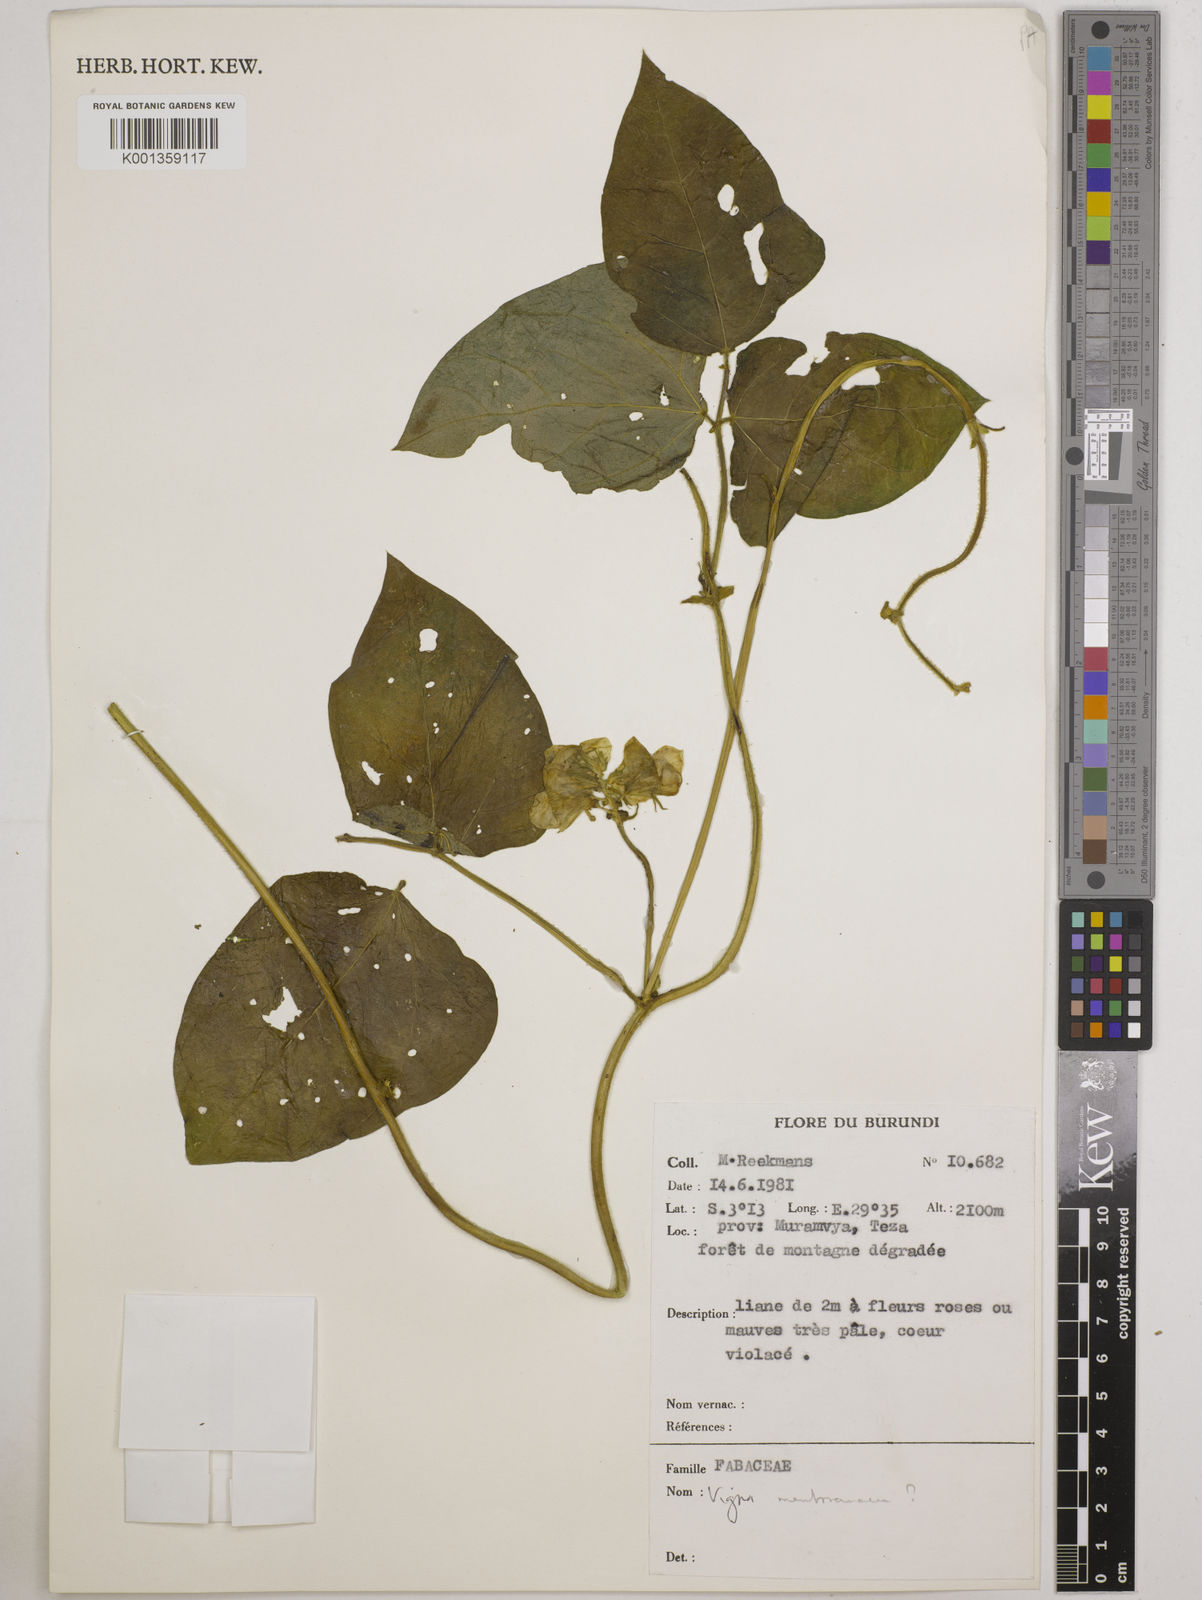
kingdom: Plantae
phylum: Tracheophyta
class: Magnoliopsida
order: Fabales
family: Fabaceae
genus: Vigna
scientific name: Vigna membranacea
